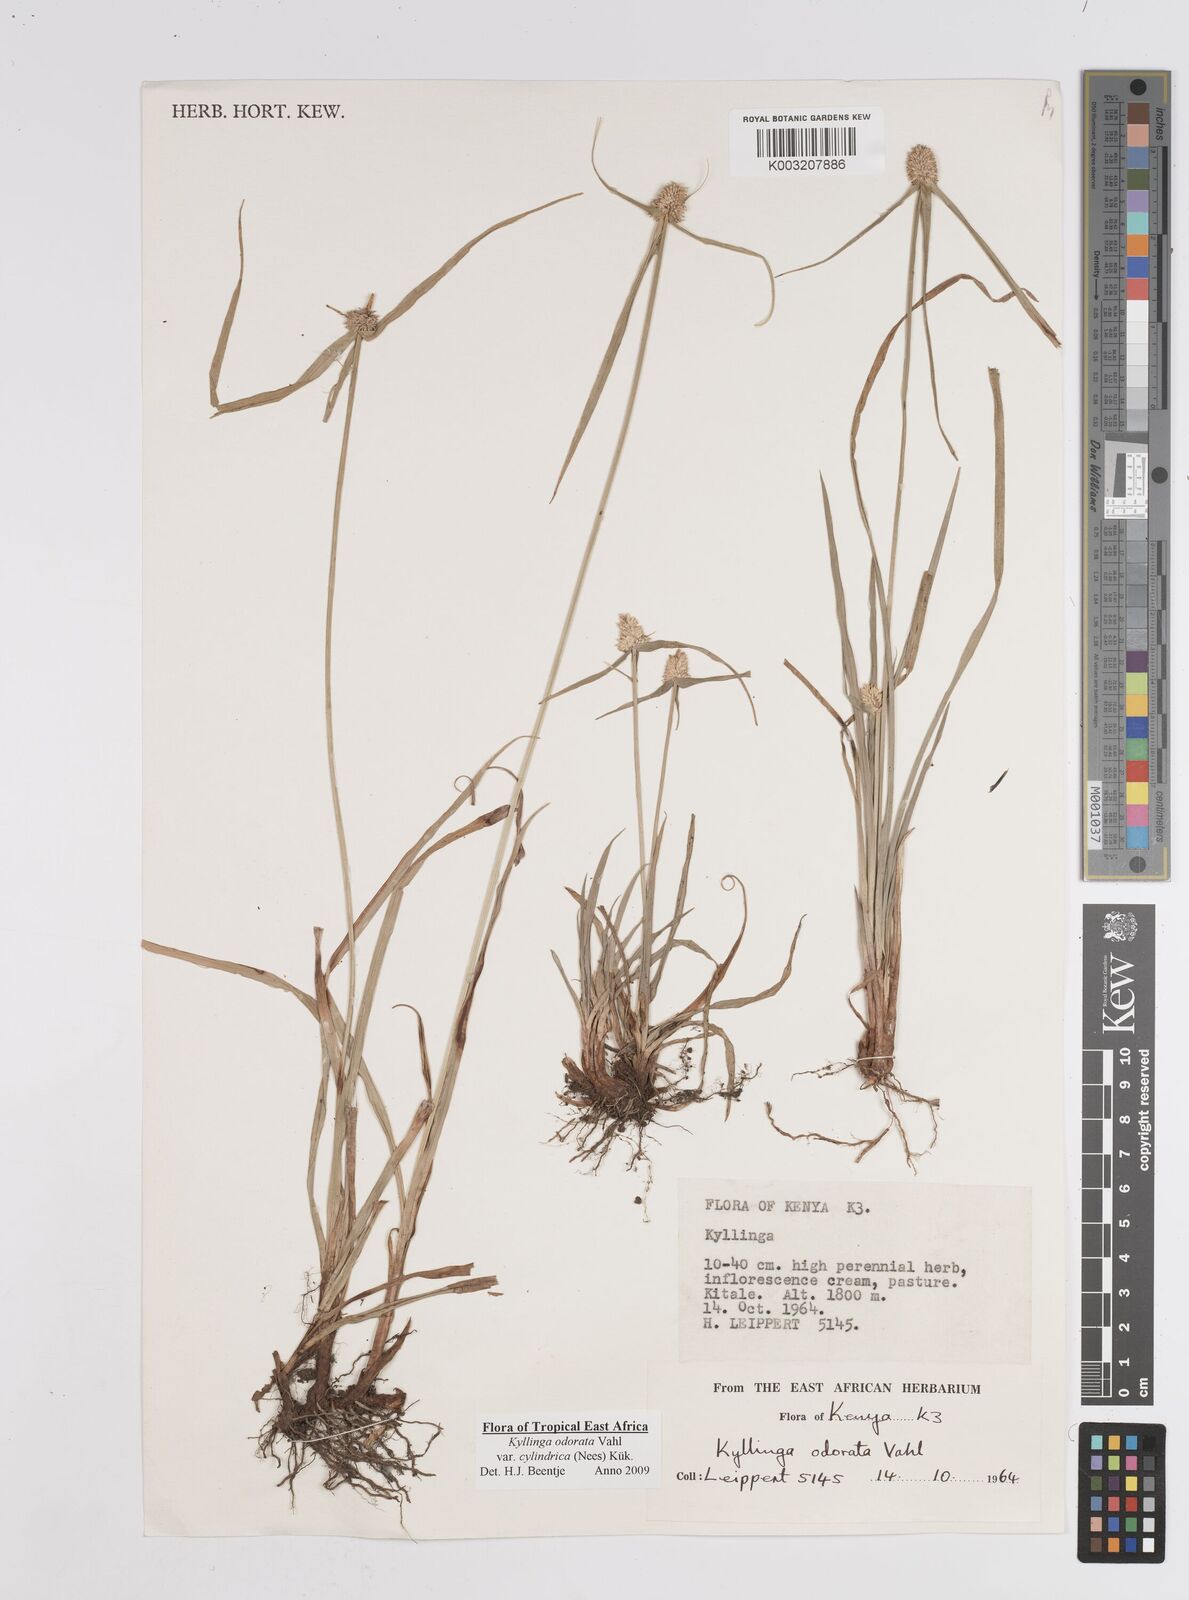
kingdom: Plantae
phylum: Tracheophyta
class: Liliopsida
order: Poales
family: Cyperaceae
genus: Cyperus
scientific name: Cyperus
